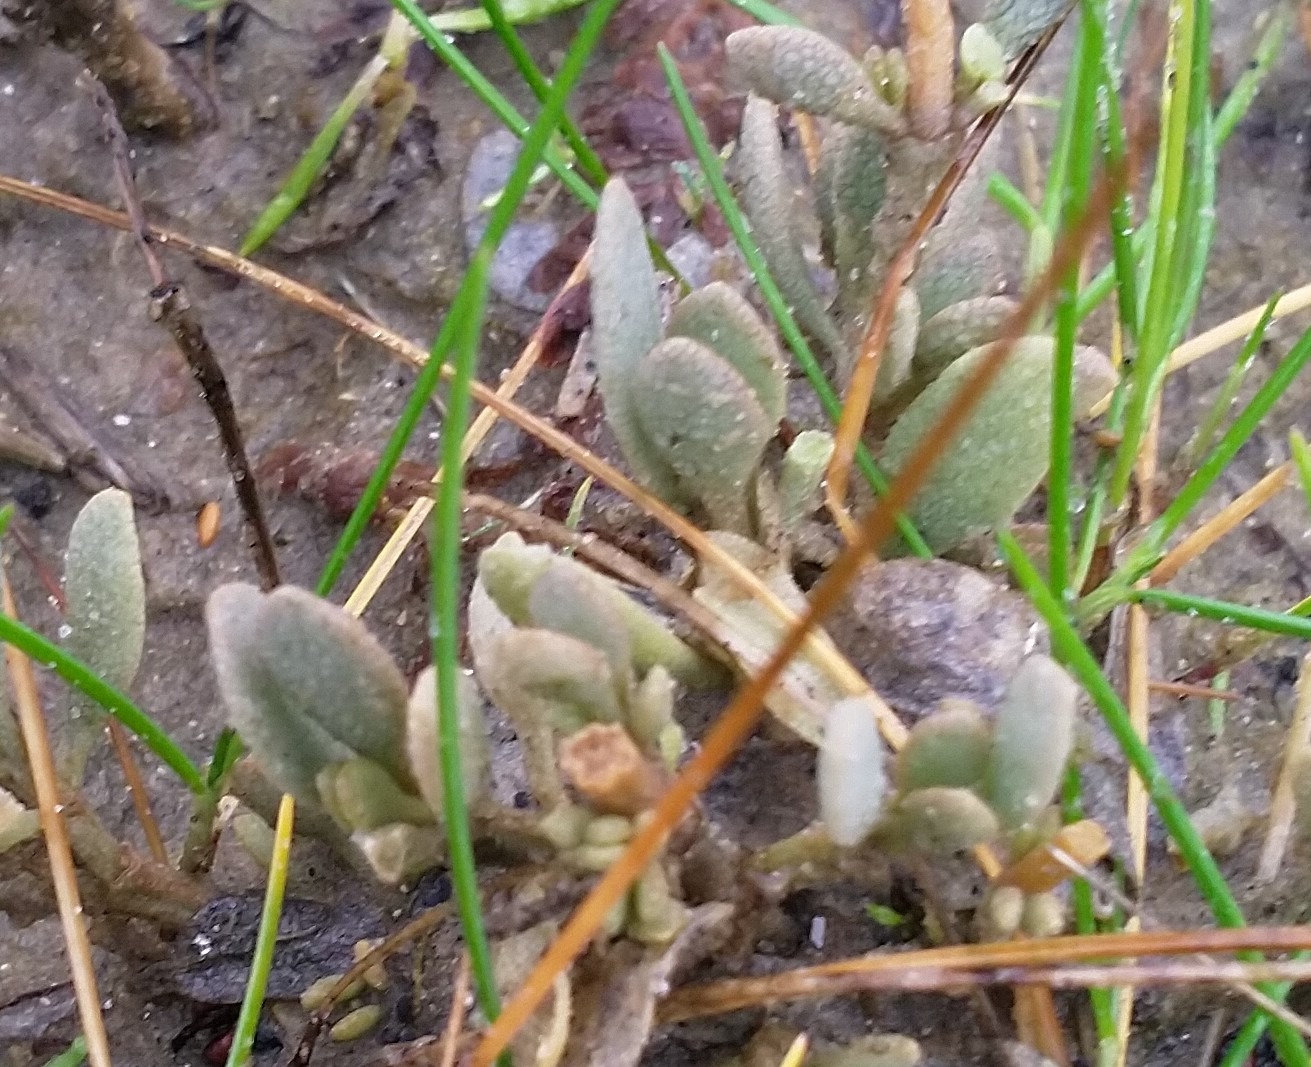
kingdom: Plantae
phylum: Tracheophyta
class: Magnoliopsida
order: Caryophyllales
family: Amaranthaceae
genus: Halimione
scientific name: Halimione portulacoides
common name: Stilkløs kilebæger
